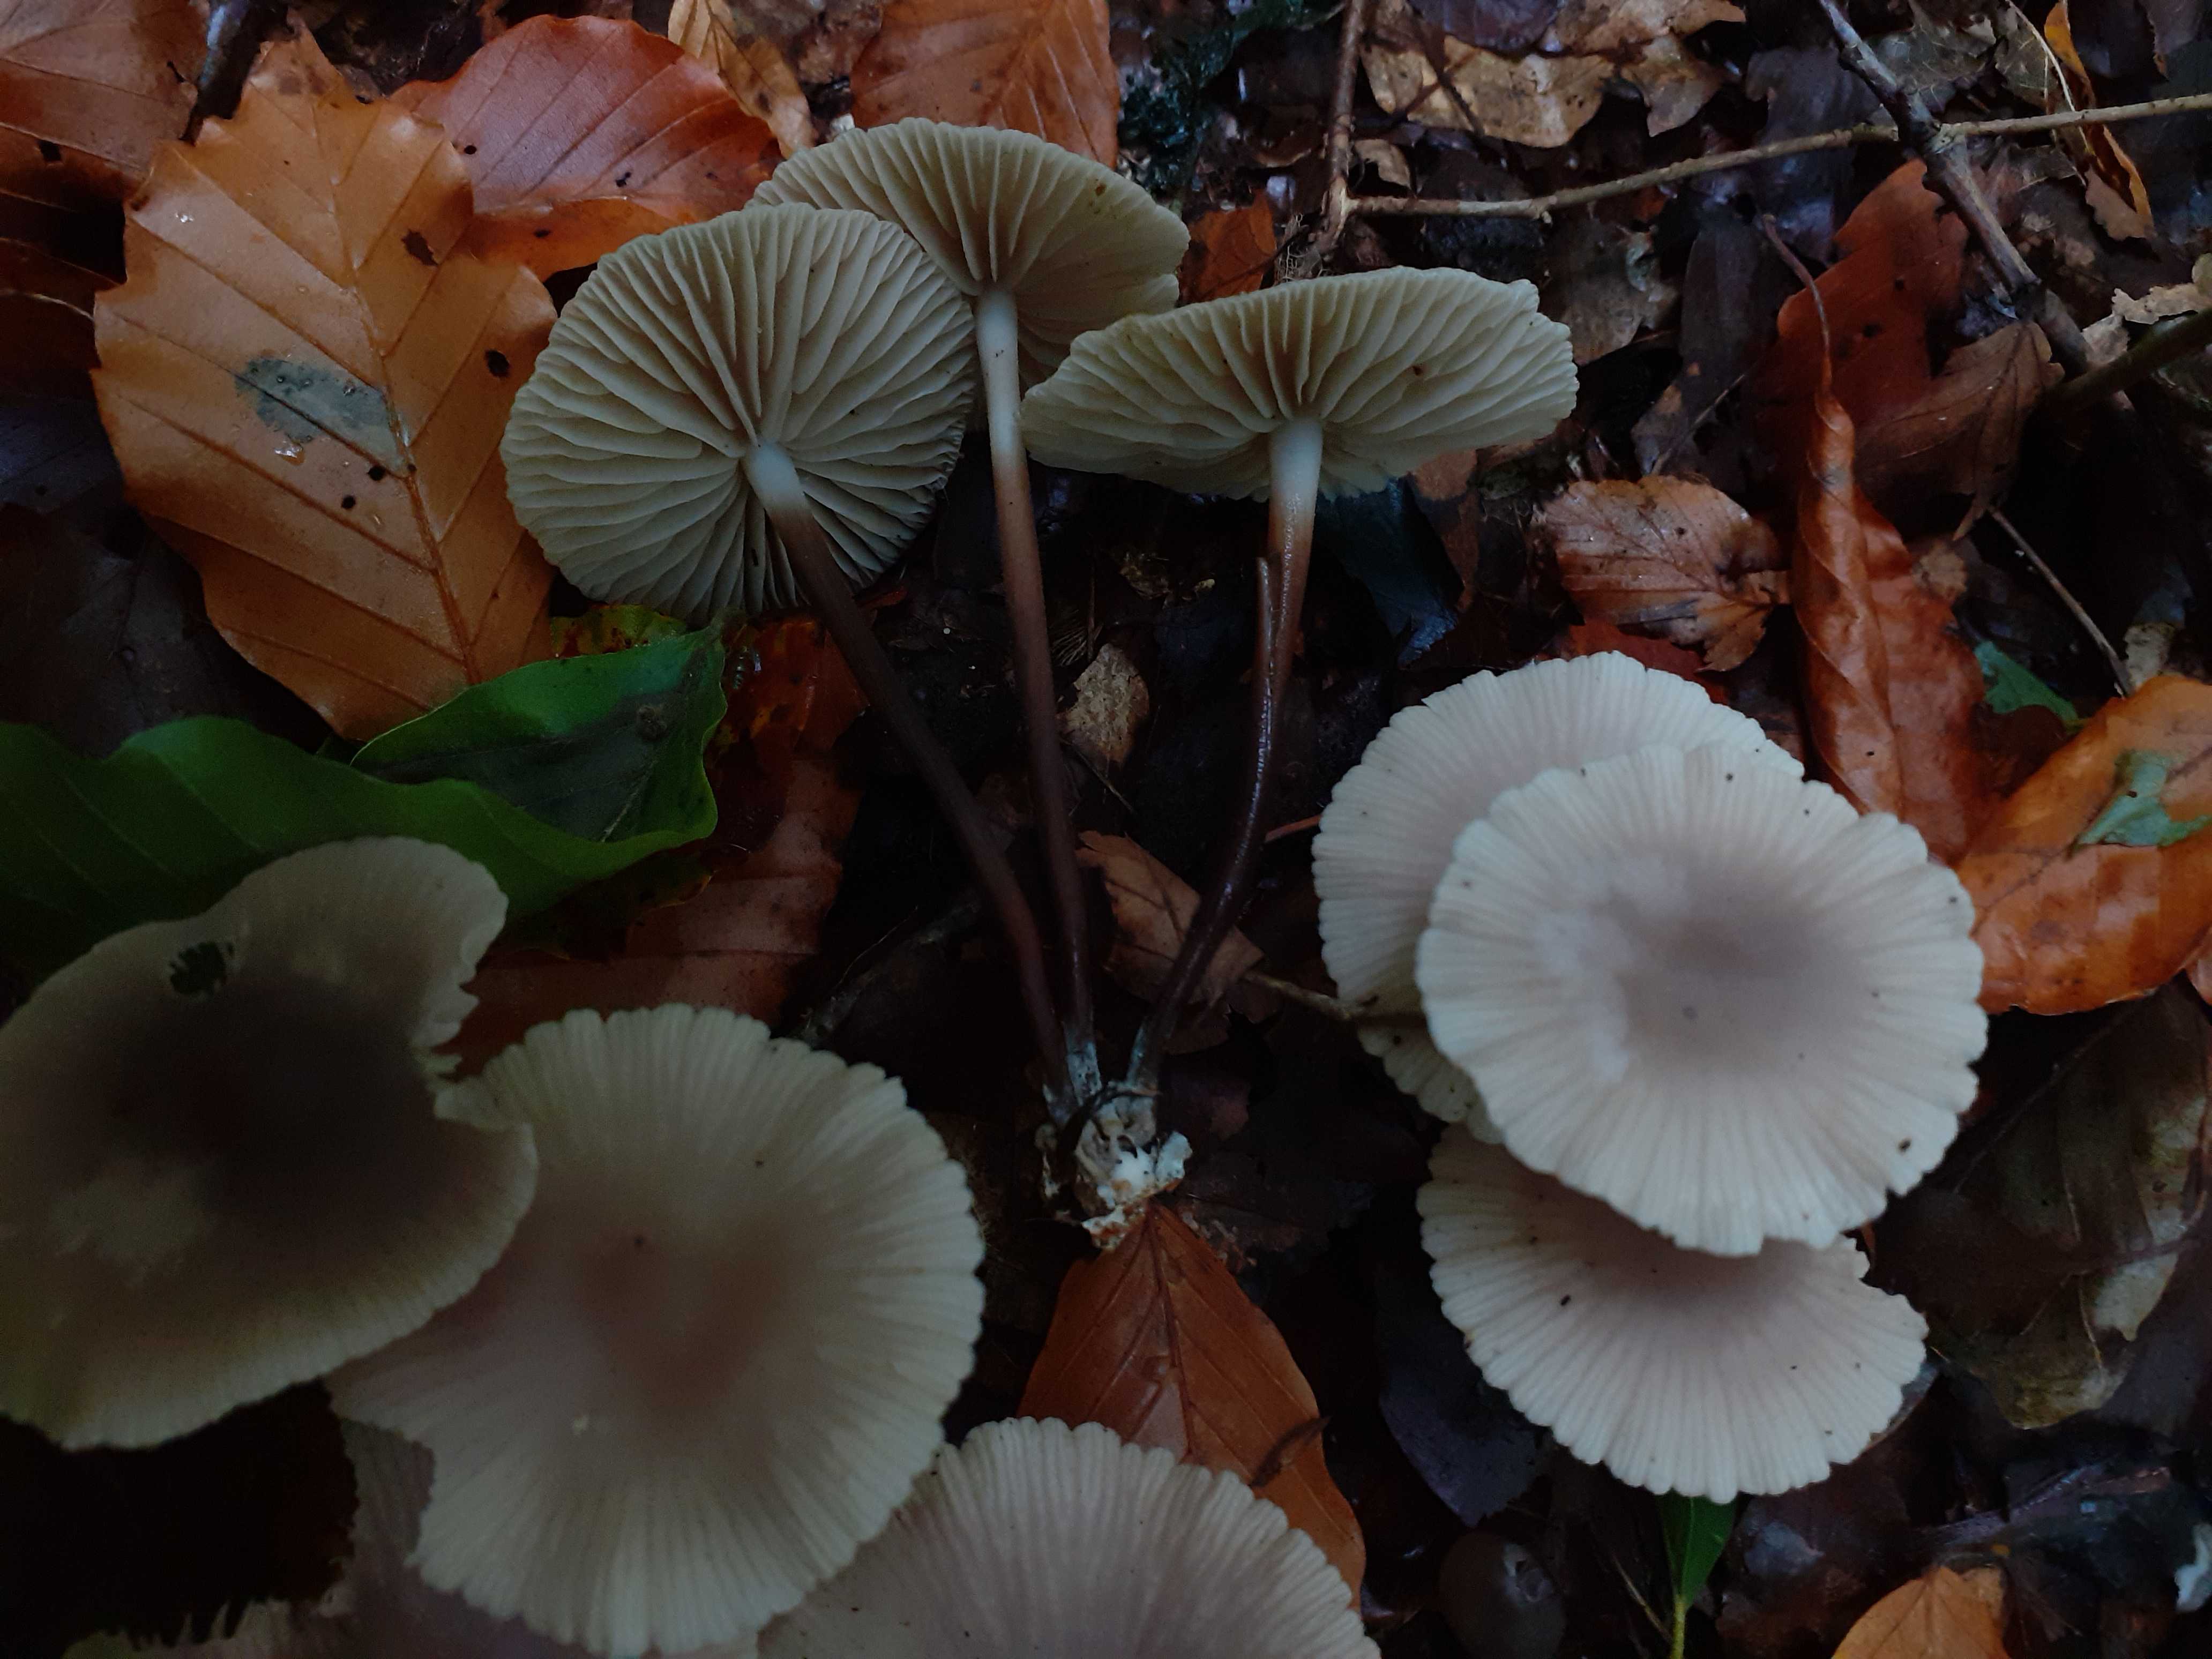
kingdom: Fungi
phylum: Basidiomycota
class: Agaricomycetes
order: Agaricales
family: Marasmiaceae
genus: Marasmius
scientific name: Marasmius wynneae
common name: hvælvet bruskhat
